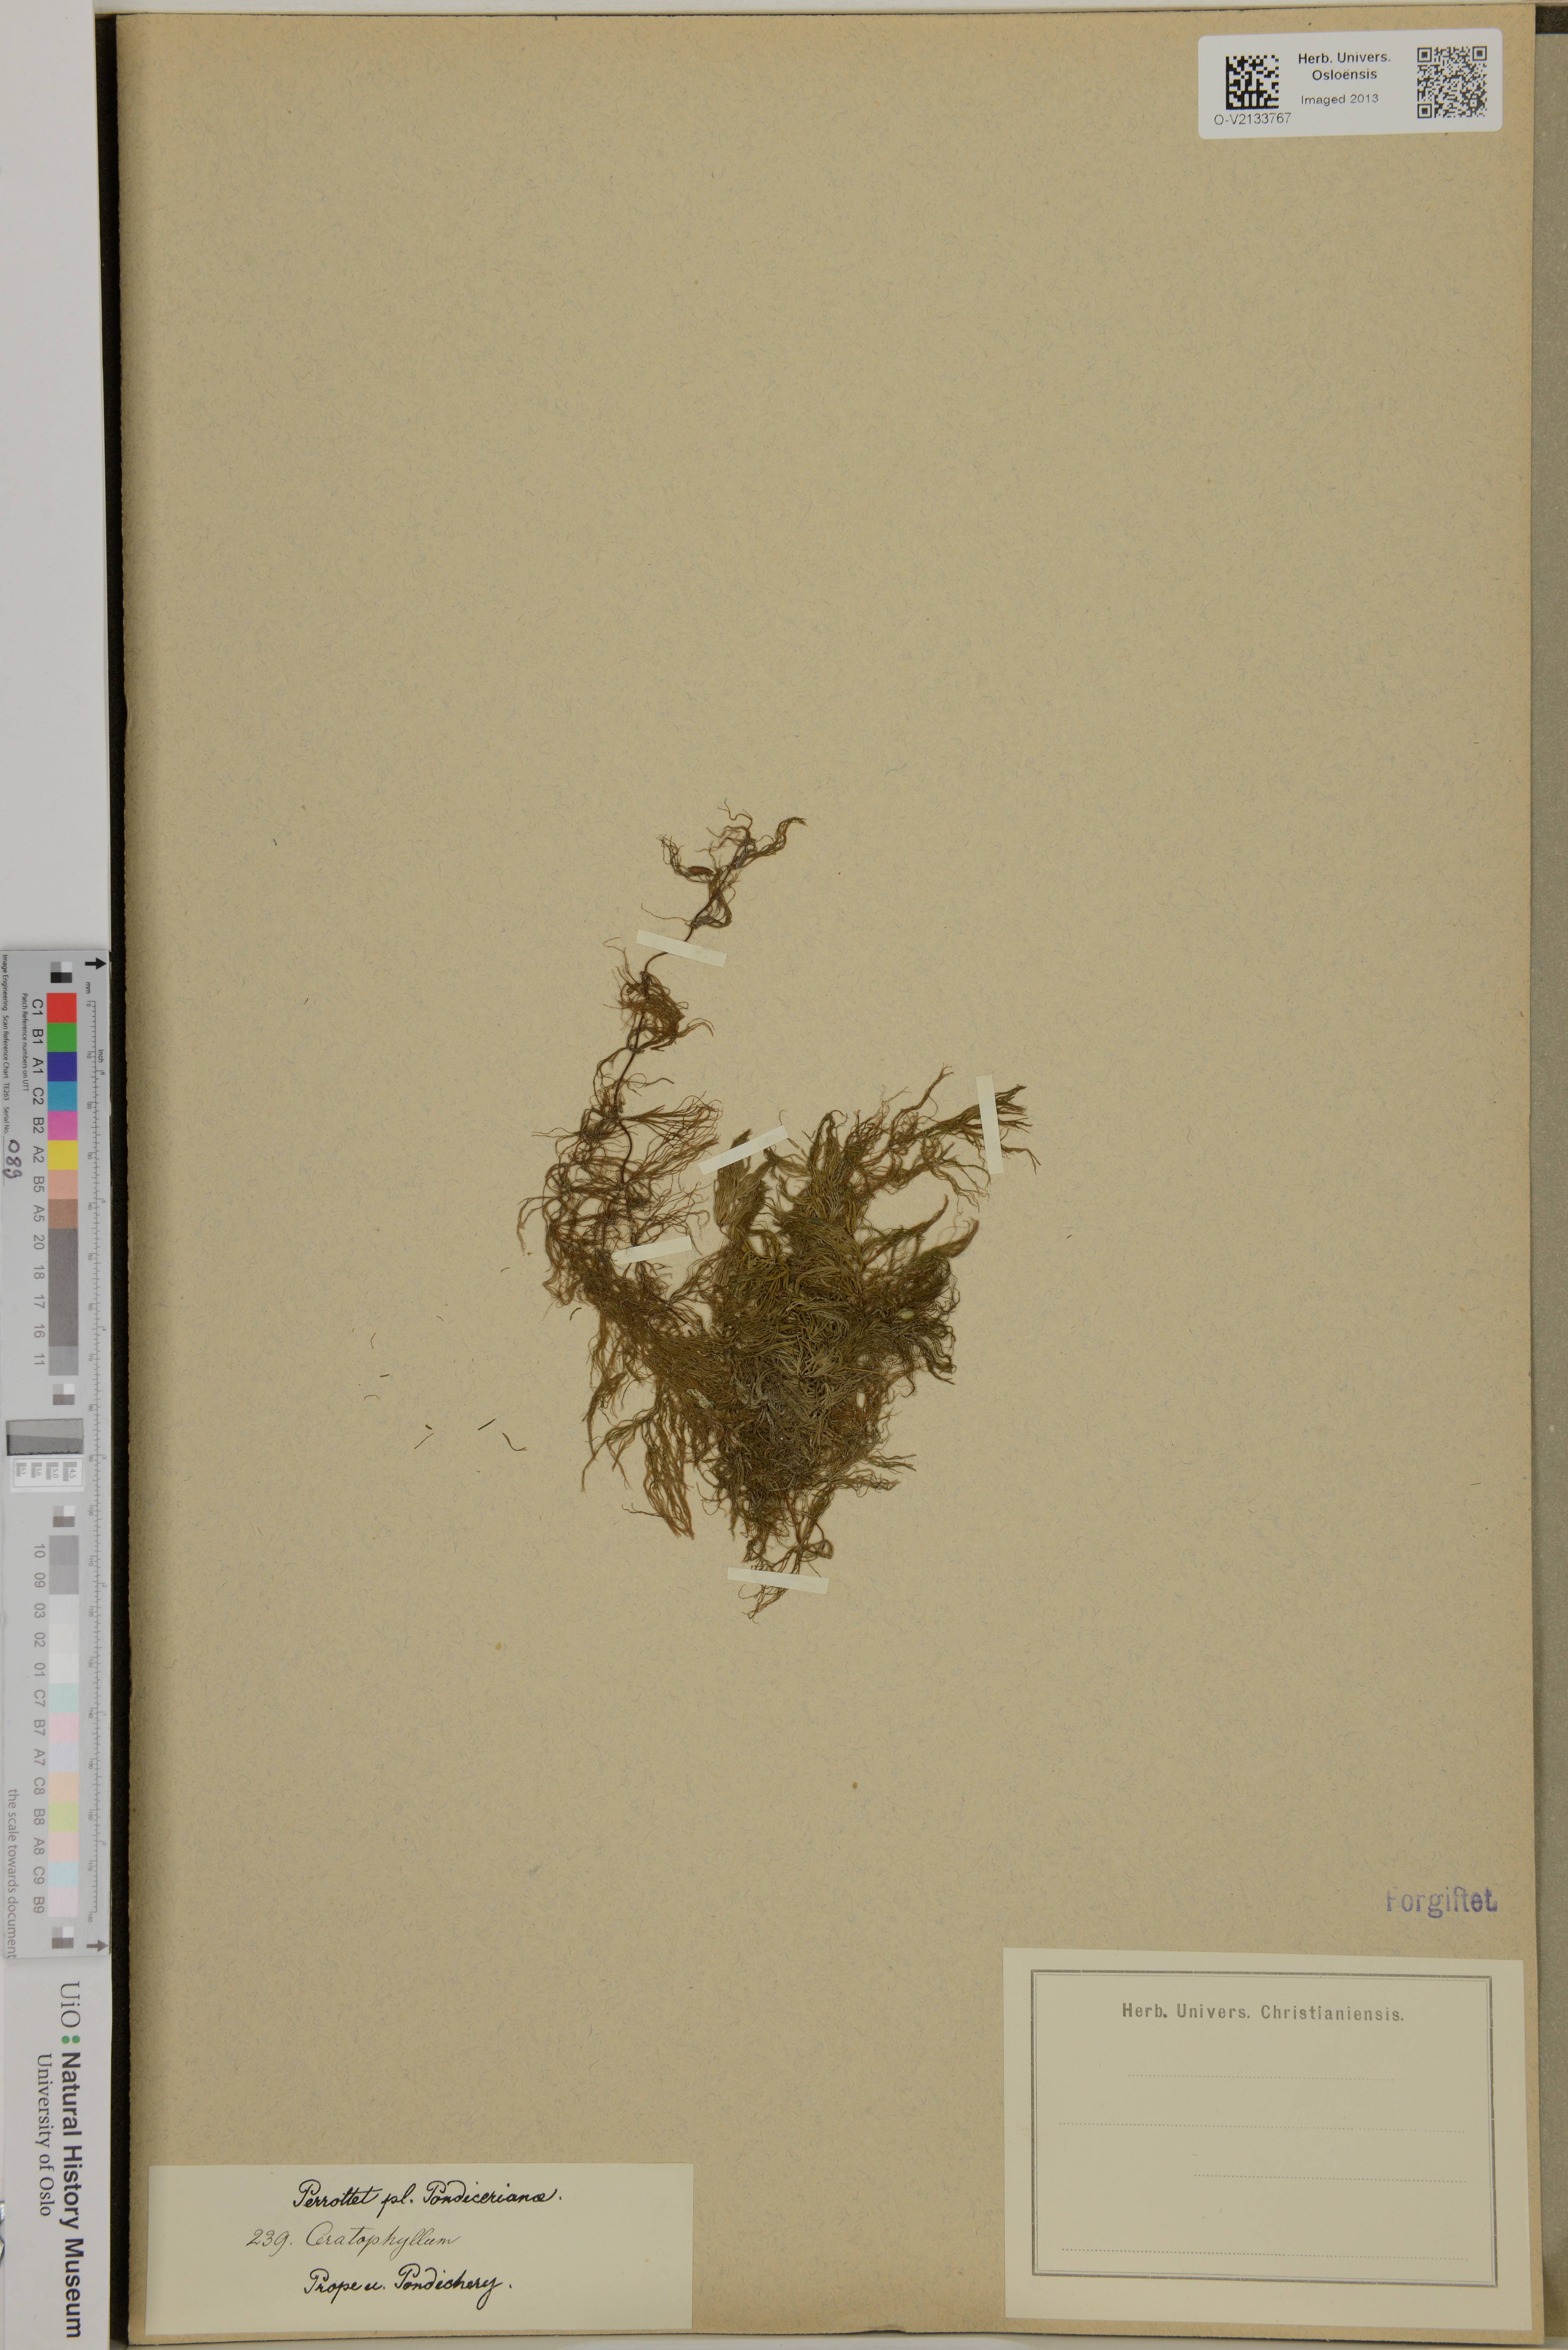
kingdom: Plantae
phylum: Tracheophyta
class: Magnoliopsida
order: Ceratophyllales
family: Ceratophyllaceae
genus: Ceratophyllum
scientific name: Ceratophyllum
